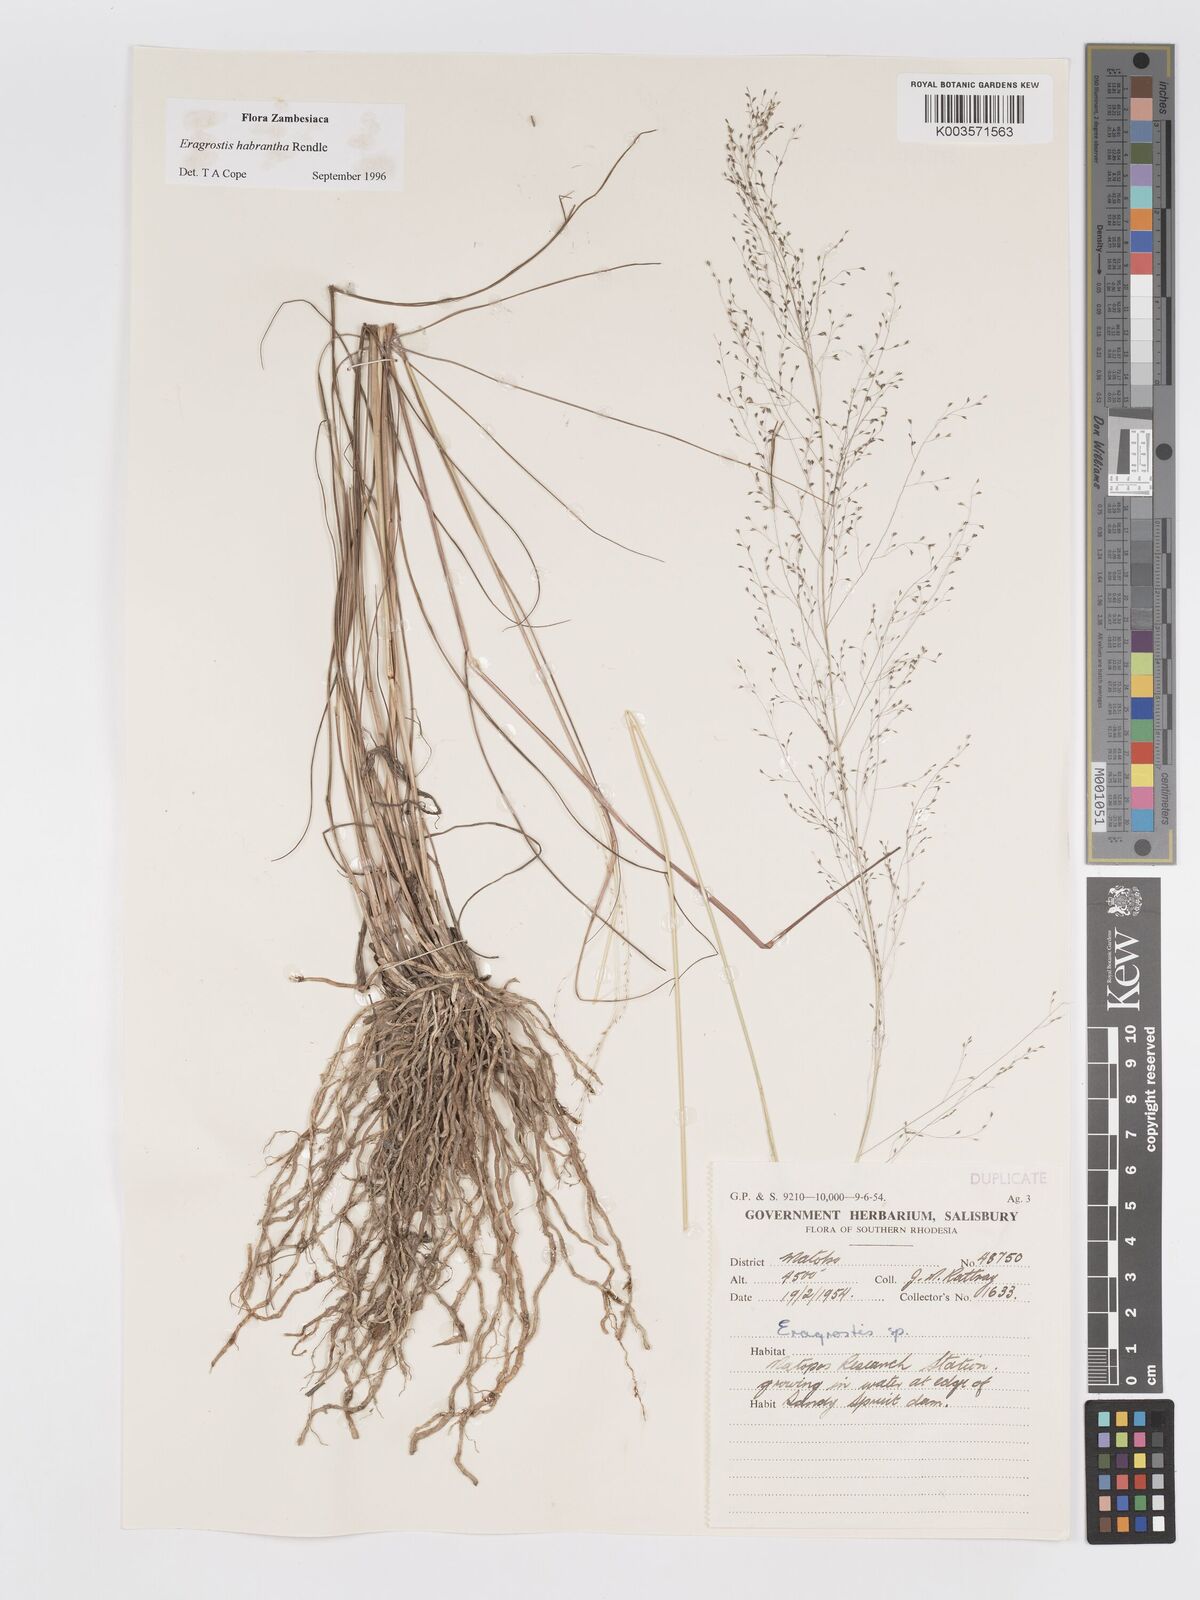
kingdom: Plantae
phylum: Tracheophyta
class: Liliopsida
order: Poales
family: Poaceae
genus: Eragrostis
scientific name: Eragrostis habrantha
